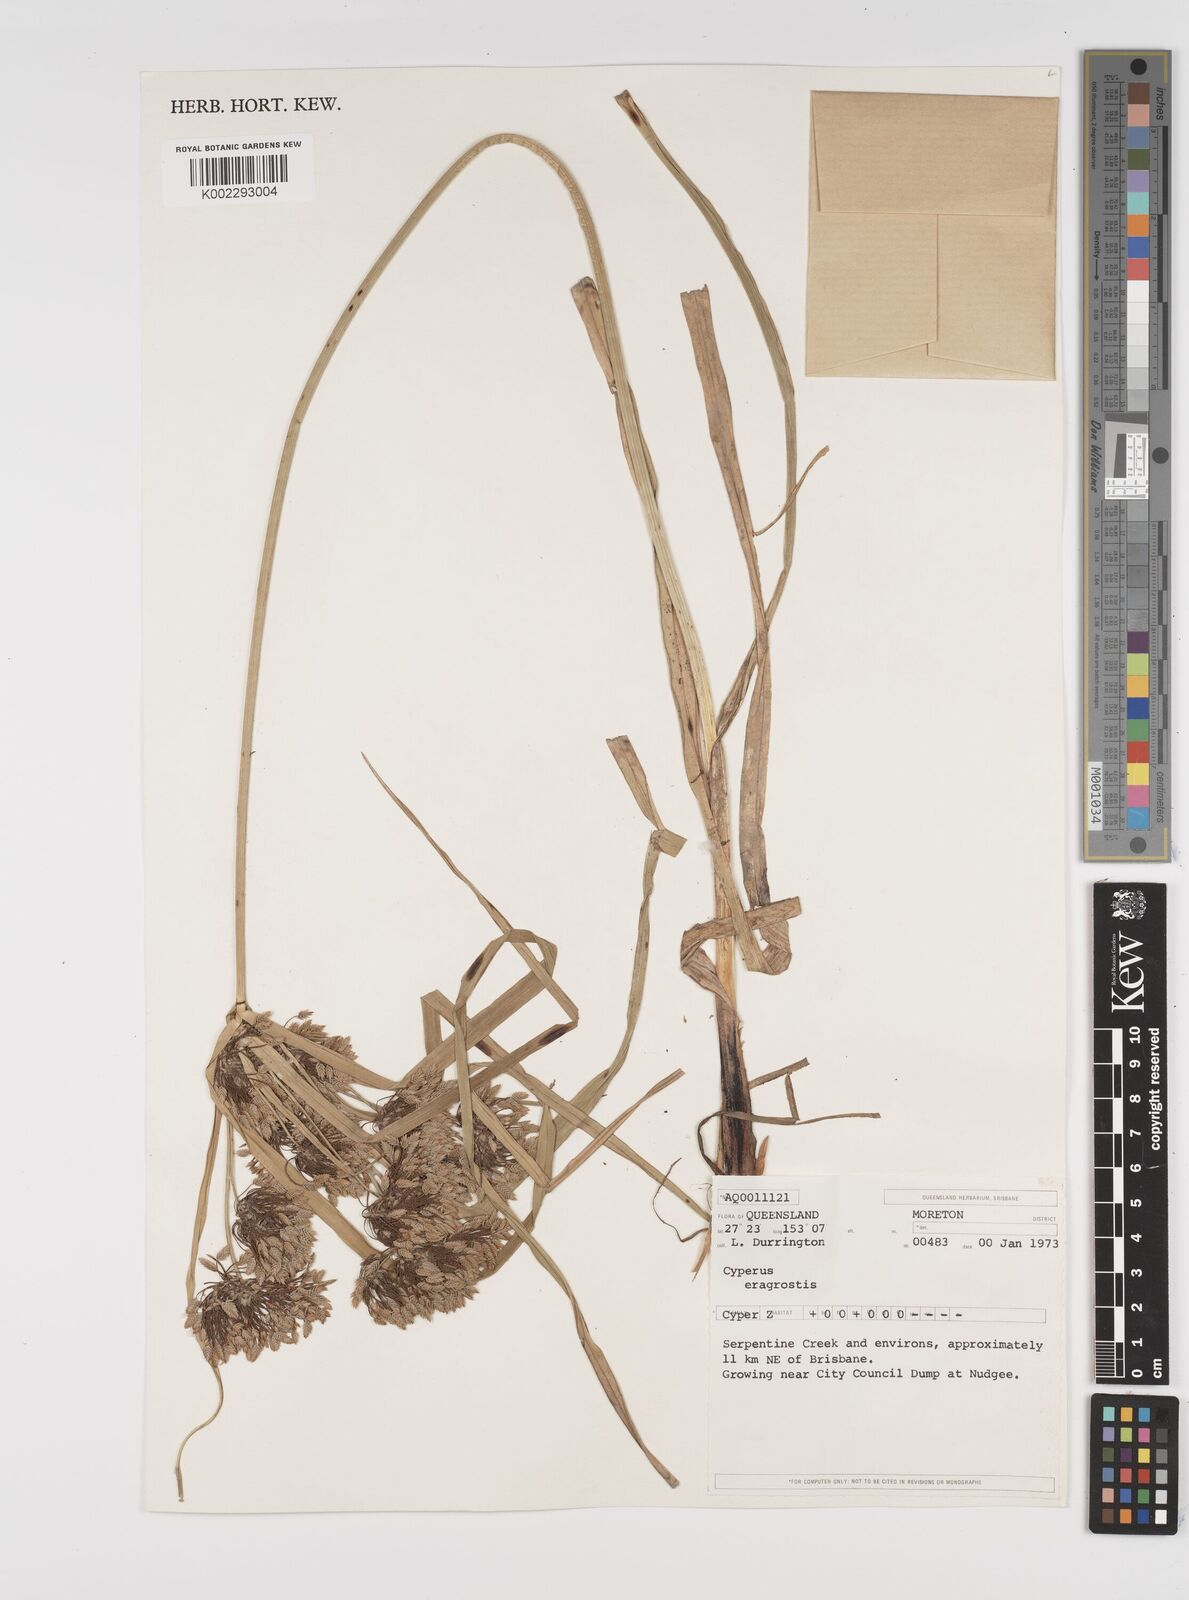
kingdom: Plantae
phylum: Tracheophyta
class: Liliopsida
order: Poales
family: Cyperaceae
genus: Cyperus
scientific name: Cyperus eragrostis
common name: Tall flatsedge
